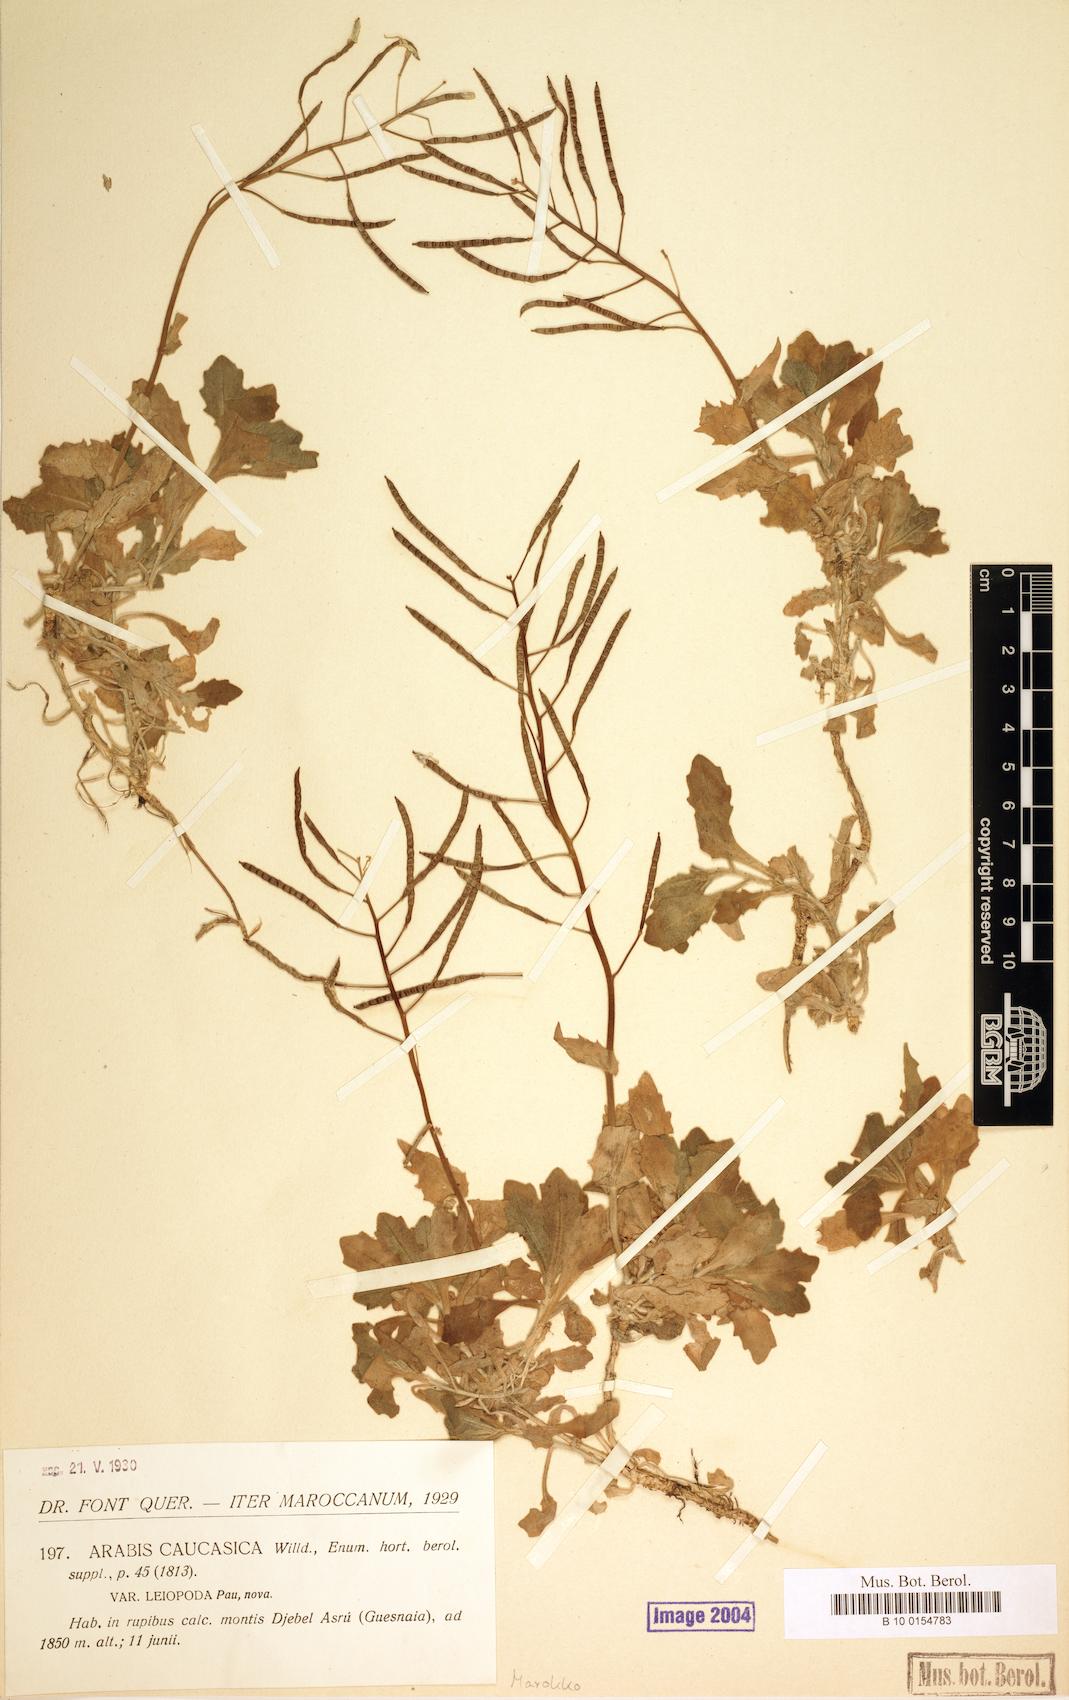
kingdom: Plantae
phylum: Tracheophyta
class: Magnoliopsida
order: Brassicales
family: Brassicaceae
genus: Arabis
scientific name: Arabis alpina
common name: Alpine rock-cress
